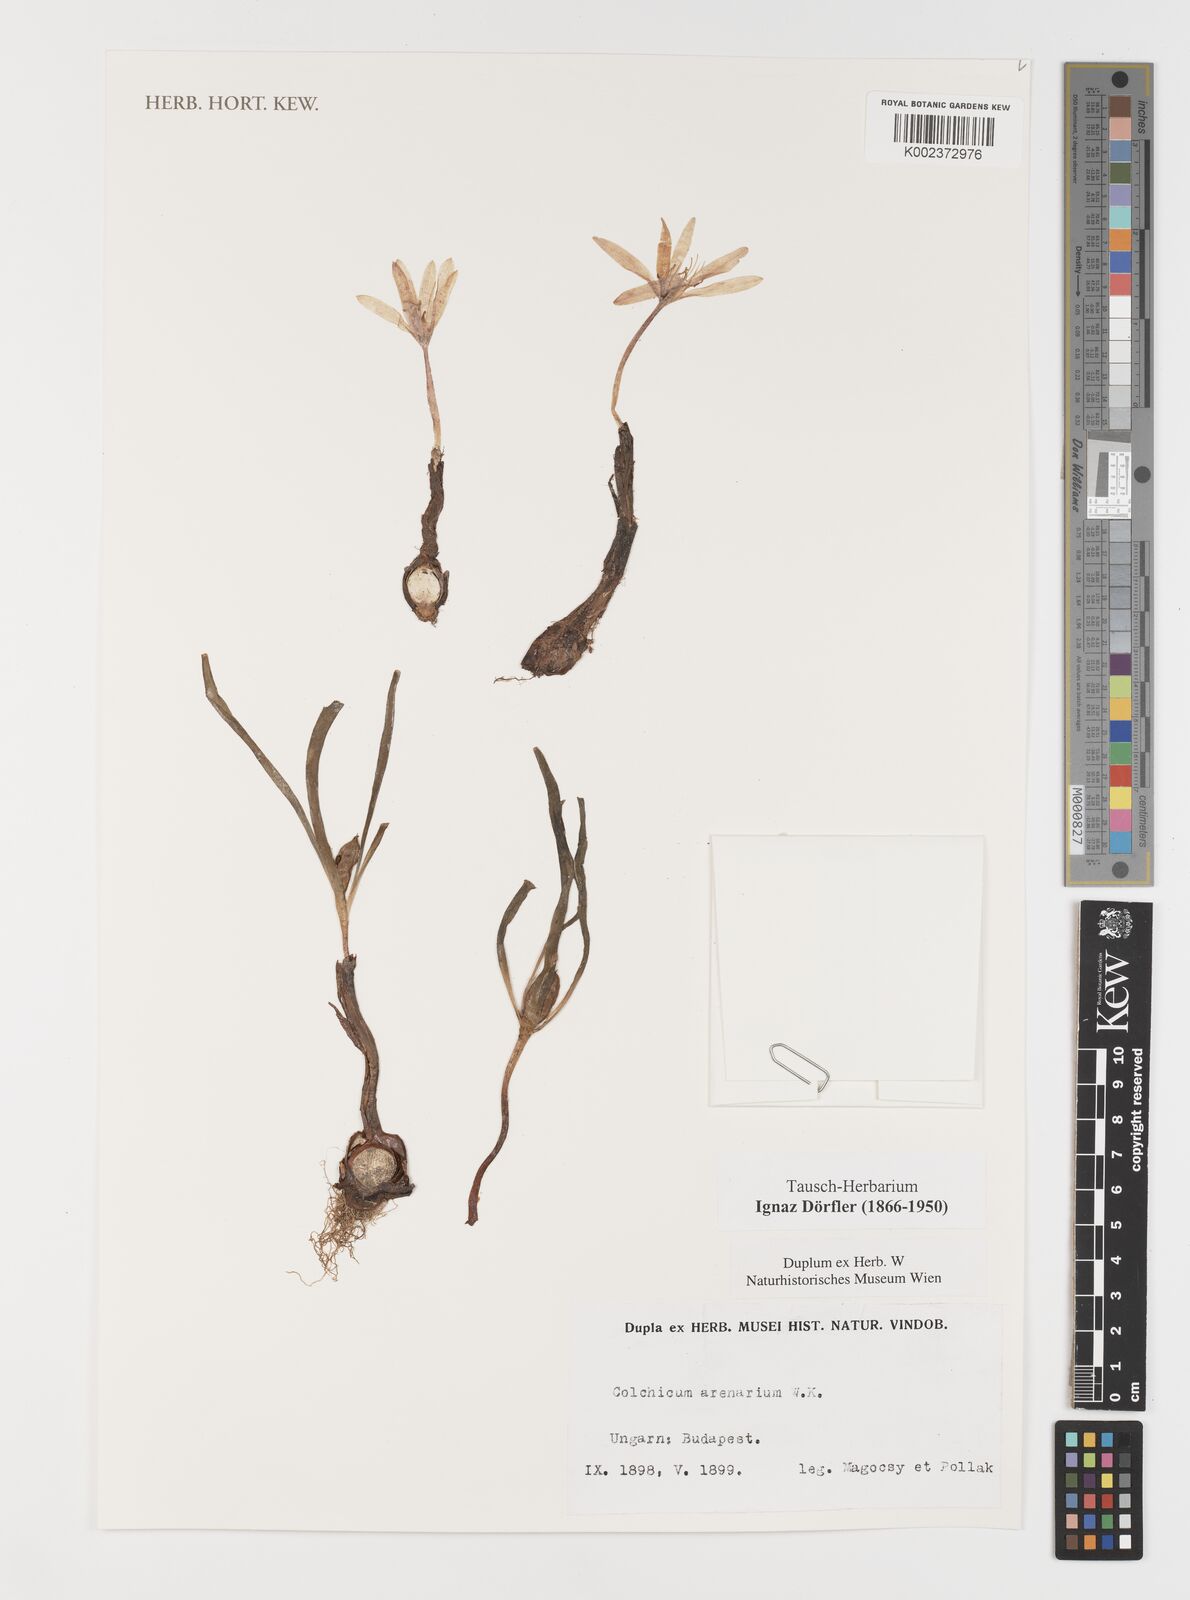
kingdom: Plantae
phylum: Tracheophyta
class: Liliopsida
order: Liliales
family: Colchicaceae
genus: Colchicum
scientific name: Colchicum arenarium
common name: Sand saffron
